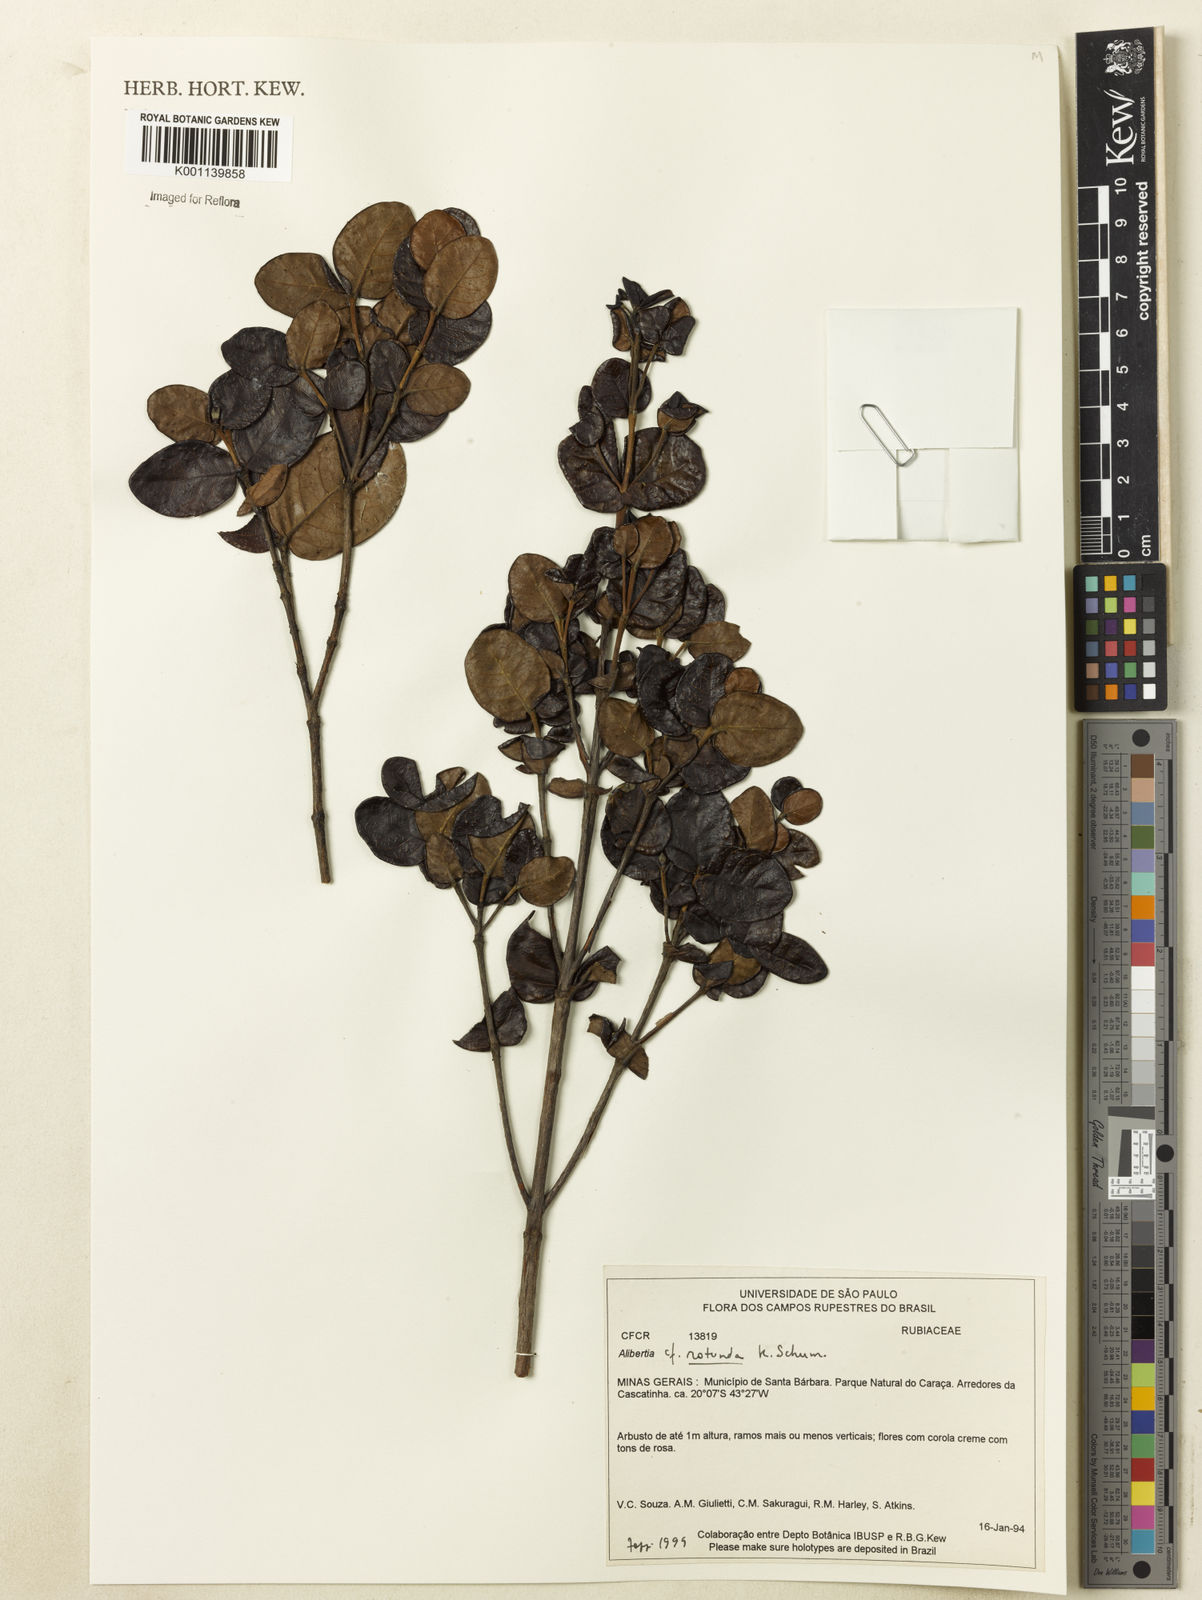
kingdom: Plantae
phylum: Tracheophyta
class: Magnoliopsida
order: Gentianales
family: Rubiaceae
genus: Cordiera
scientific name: Cordiera concolor
